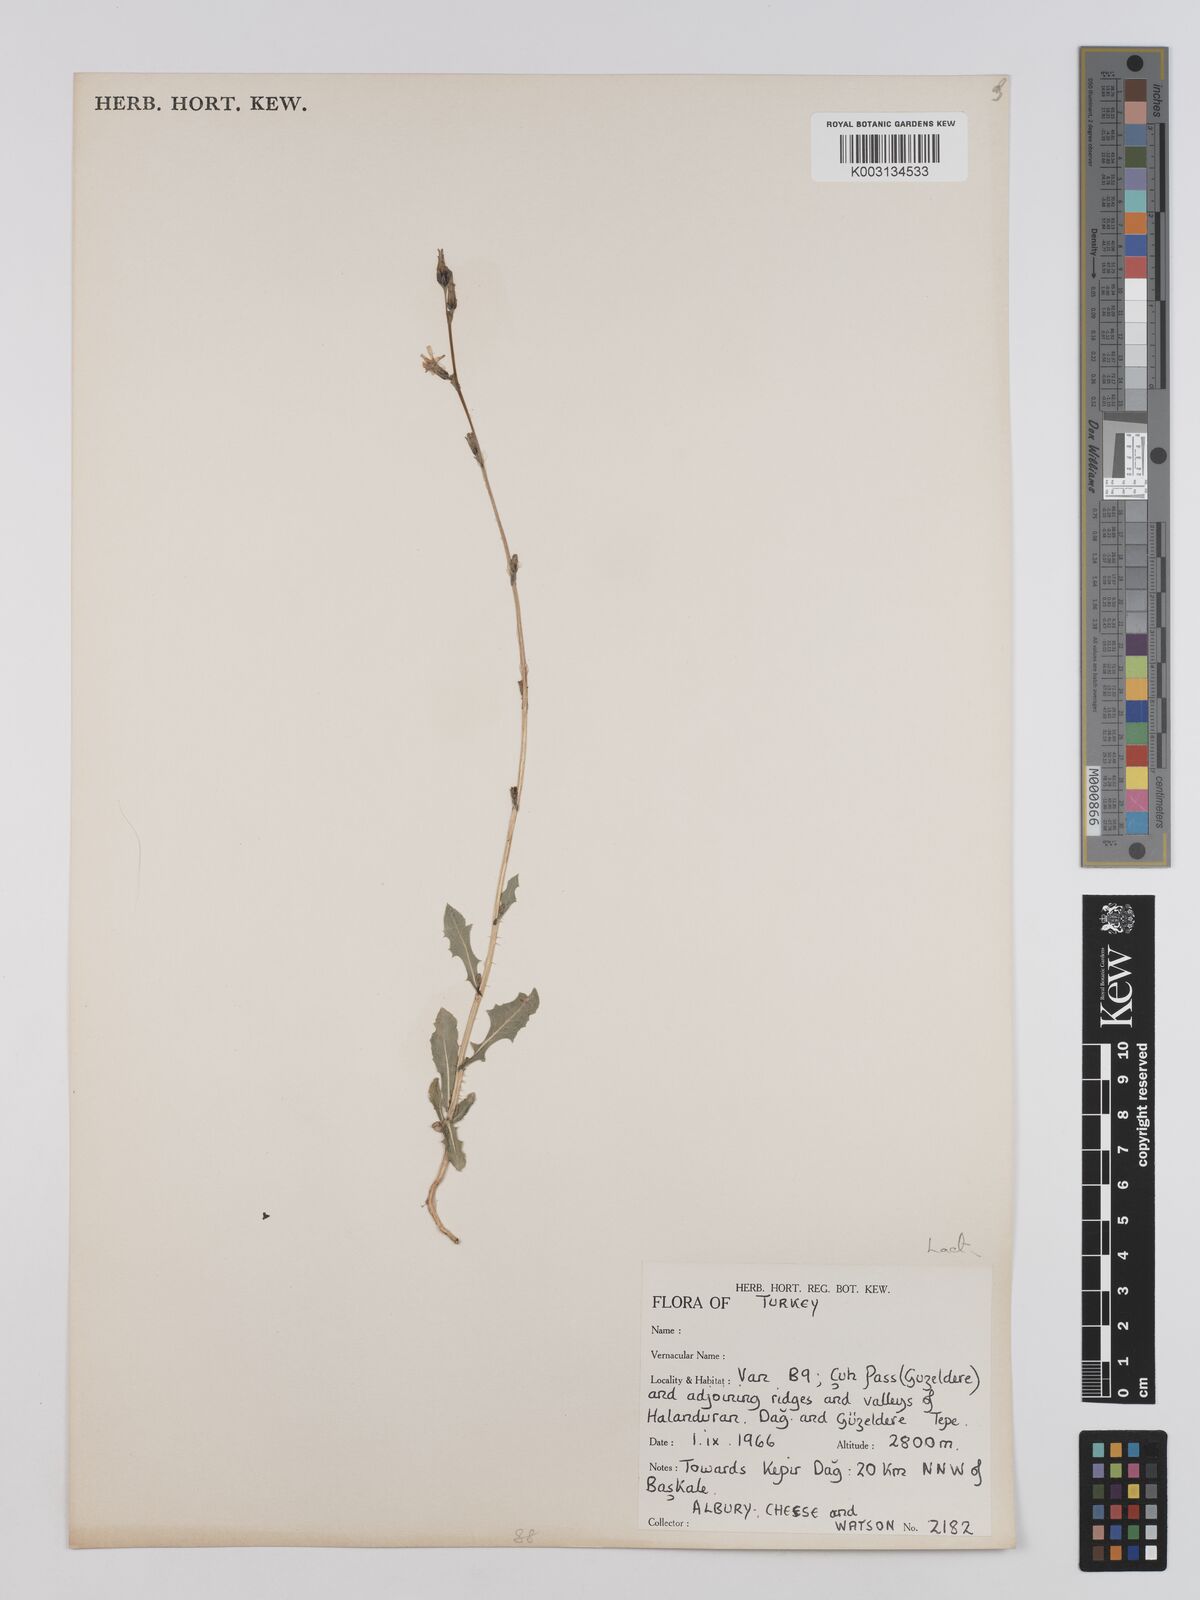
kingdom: Plantae
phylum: Tracheophyta
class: Magnoliopsida
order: Asterales
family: Asteraceae
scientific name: Asteraceae
